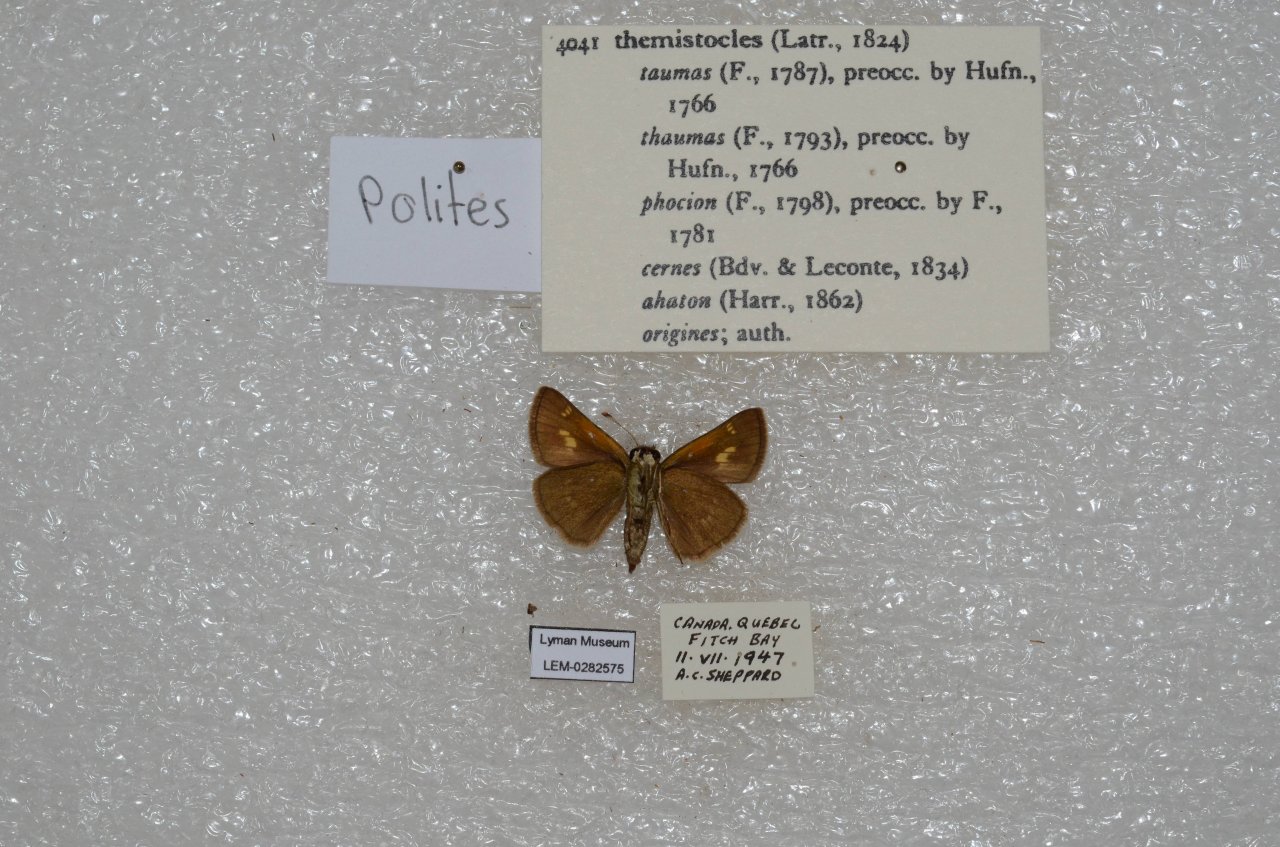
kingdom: Animalia
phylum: Arthropoda
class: Insecta
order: Lepidoptera
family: Hesperiidae
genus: Polites
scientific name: Polites themistocles
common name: Tawny-edged Skipper
